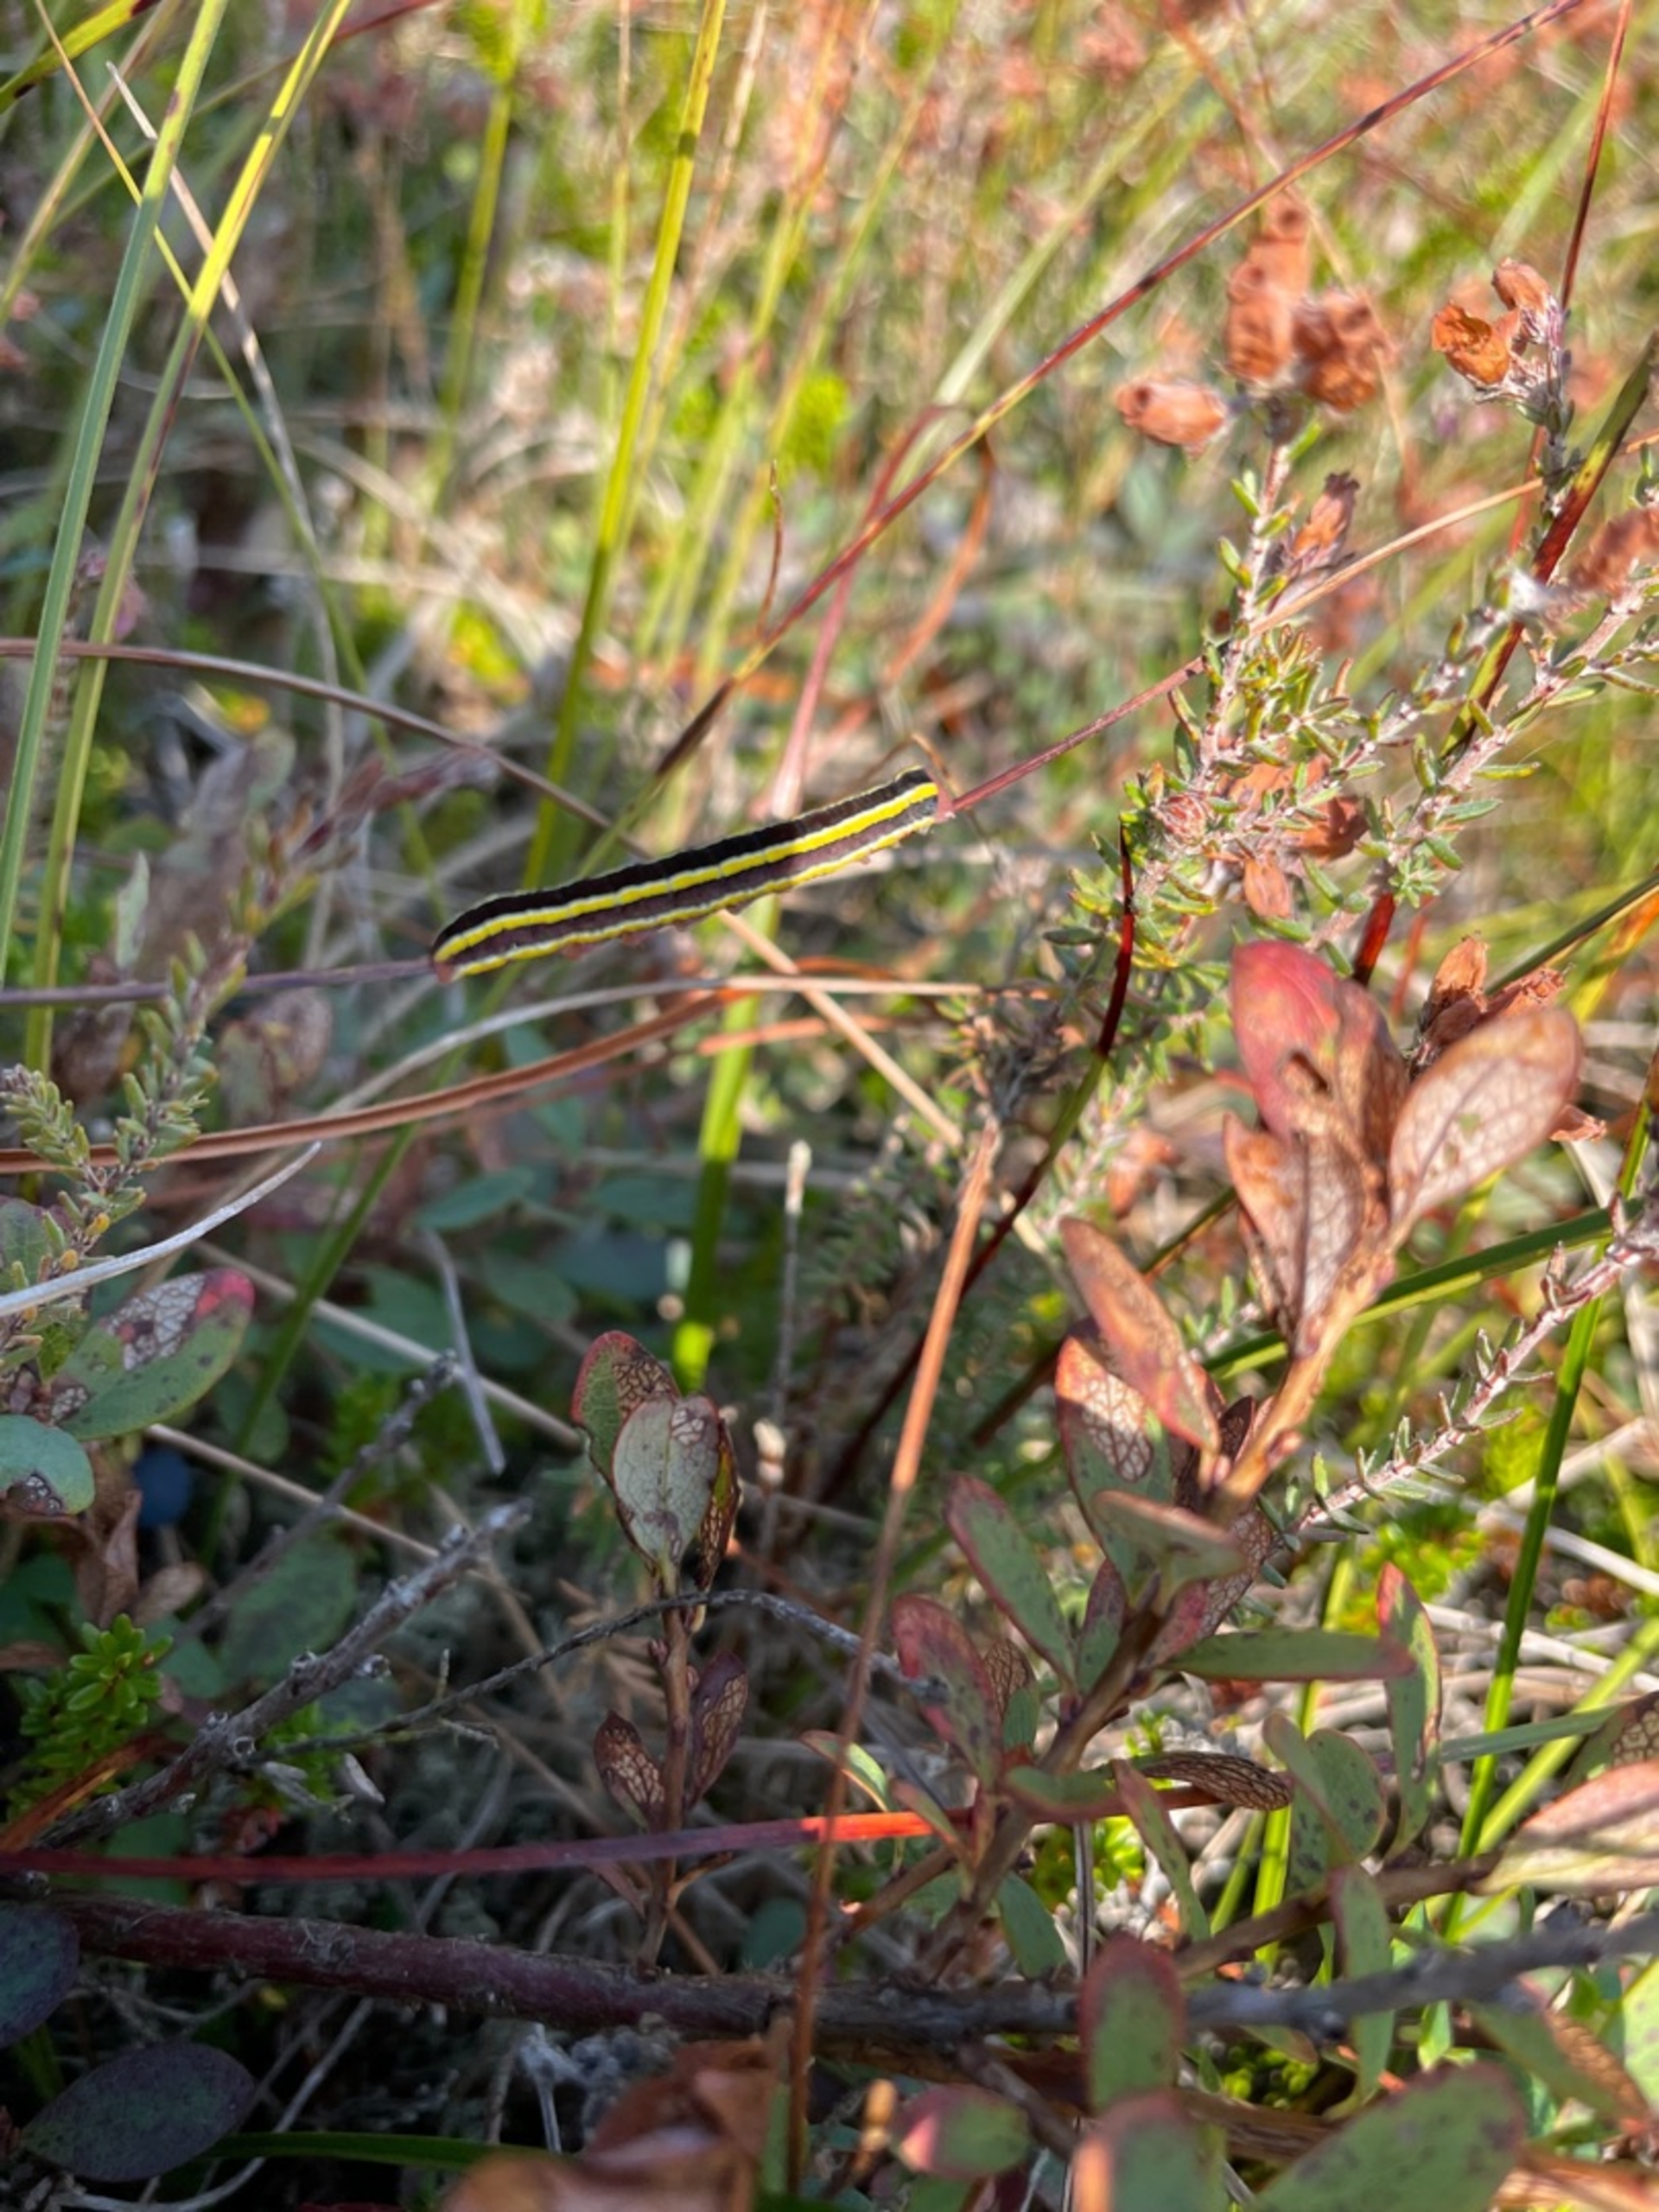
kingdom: Animalia
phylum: Arthropoda
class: Insecta
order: Lepidoptera
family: Noctuidae
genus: Ceramica
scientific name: Ceramica pisi
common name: Ærteugle
